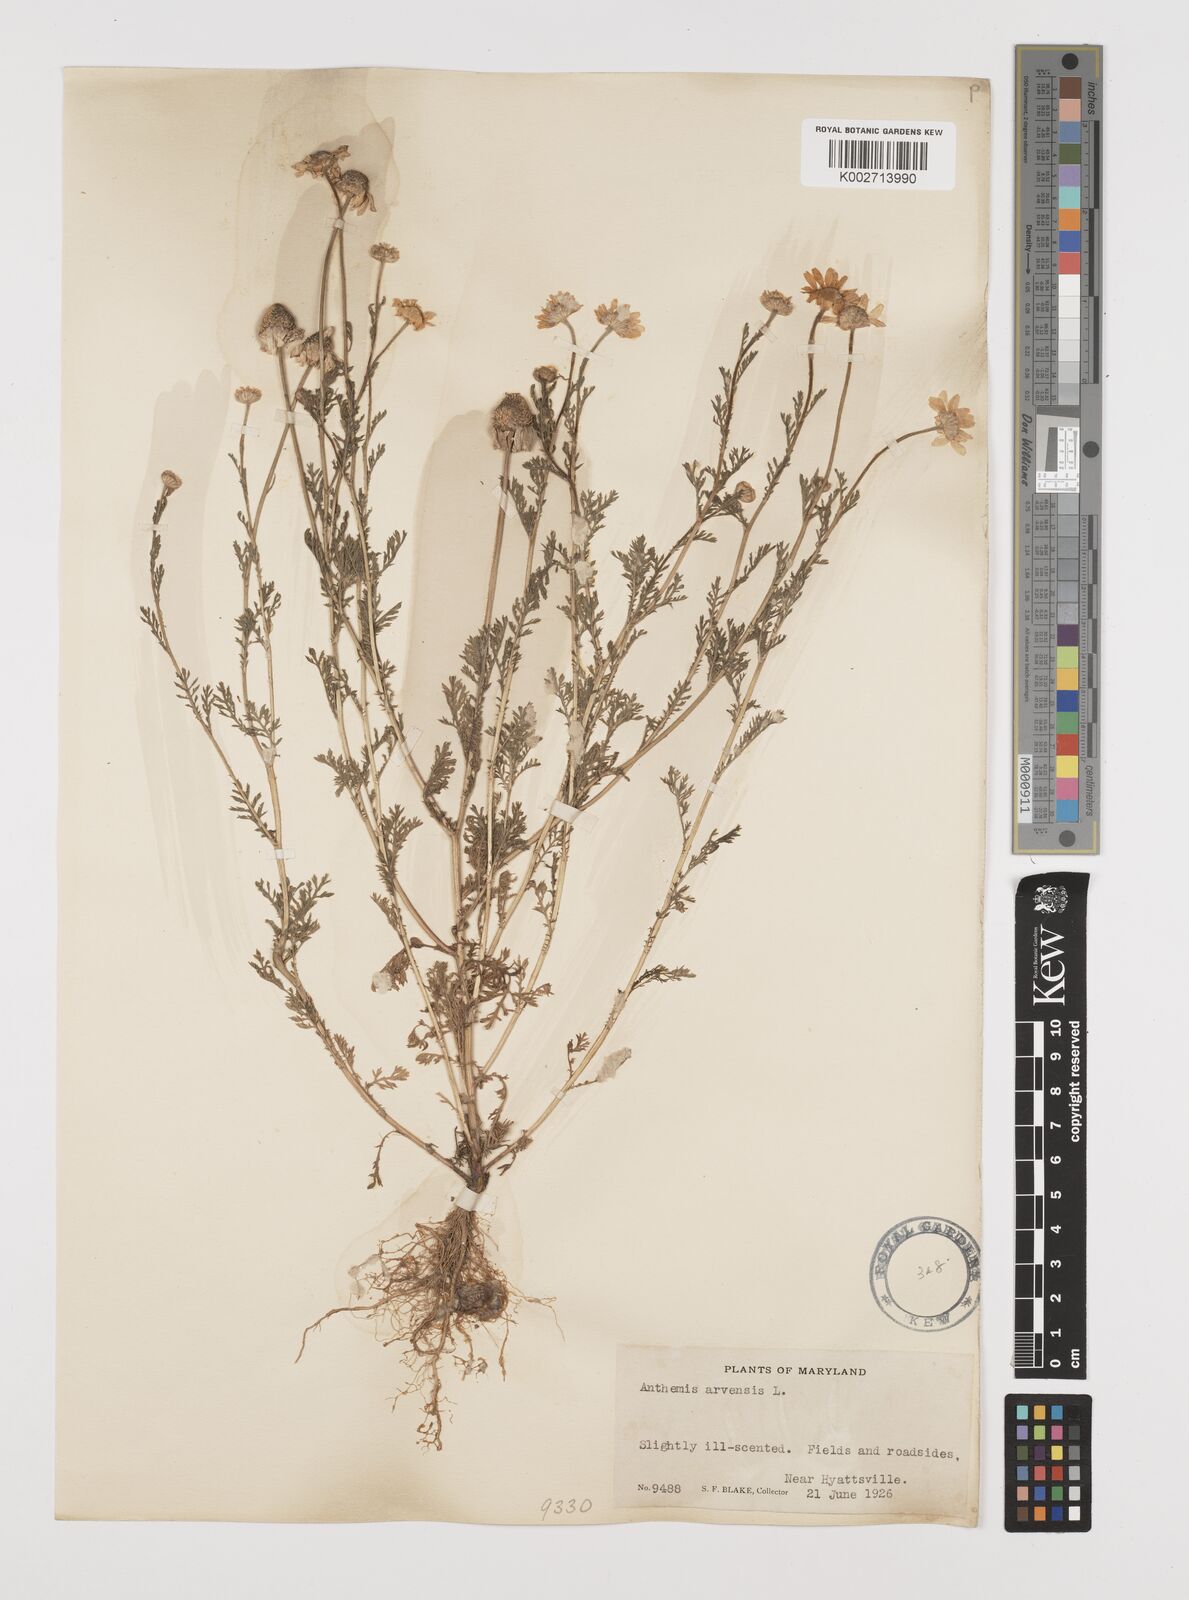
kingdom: Plantae
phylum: Tracheophyta
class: Magnoliopsida
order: Asterales
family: Asteraceae
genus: Anthemis
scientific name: Anthemis arvensis
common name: Corn chamomile
